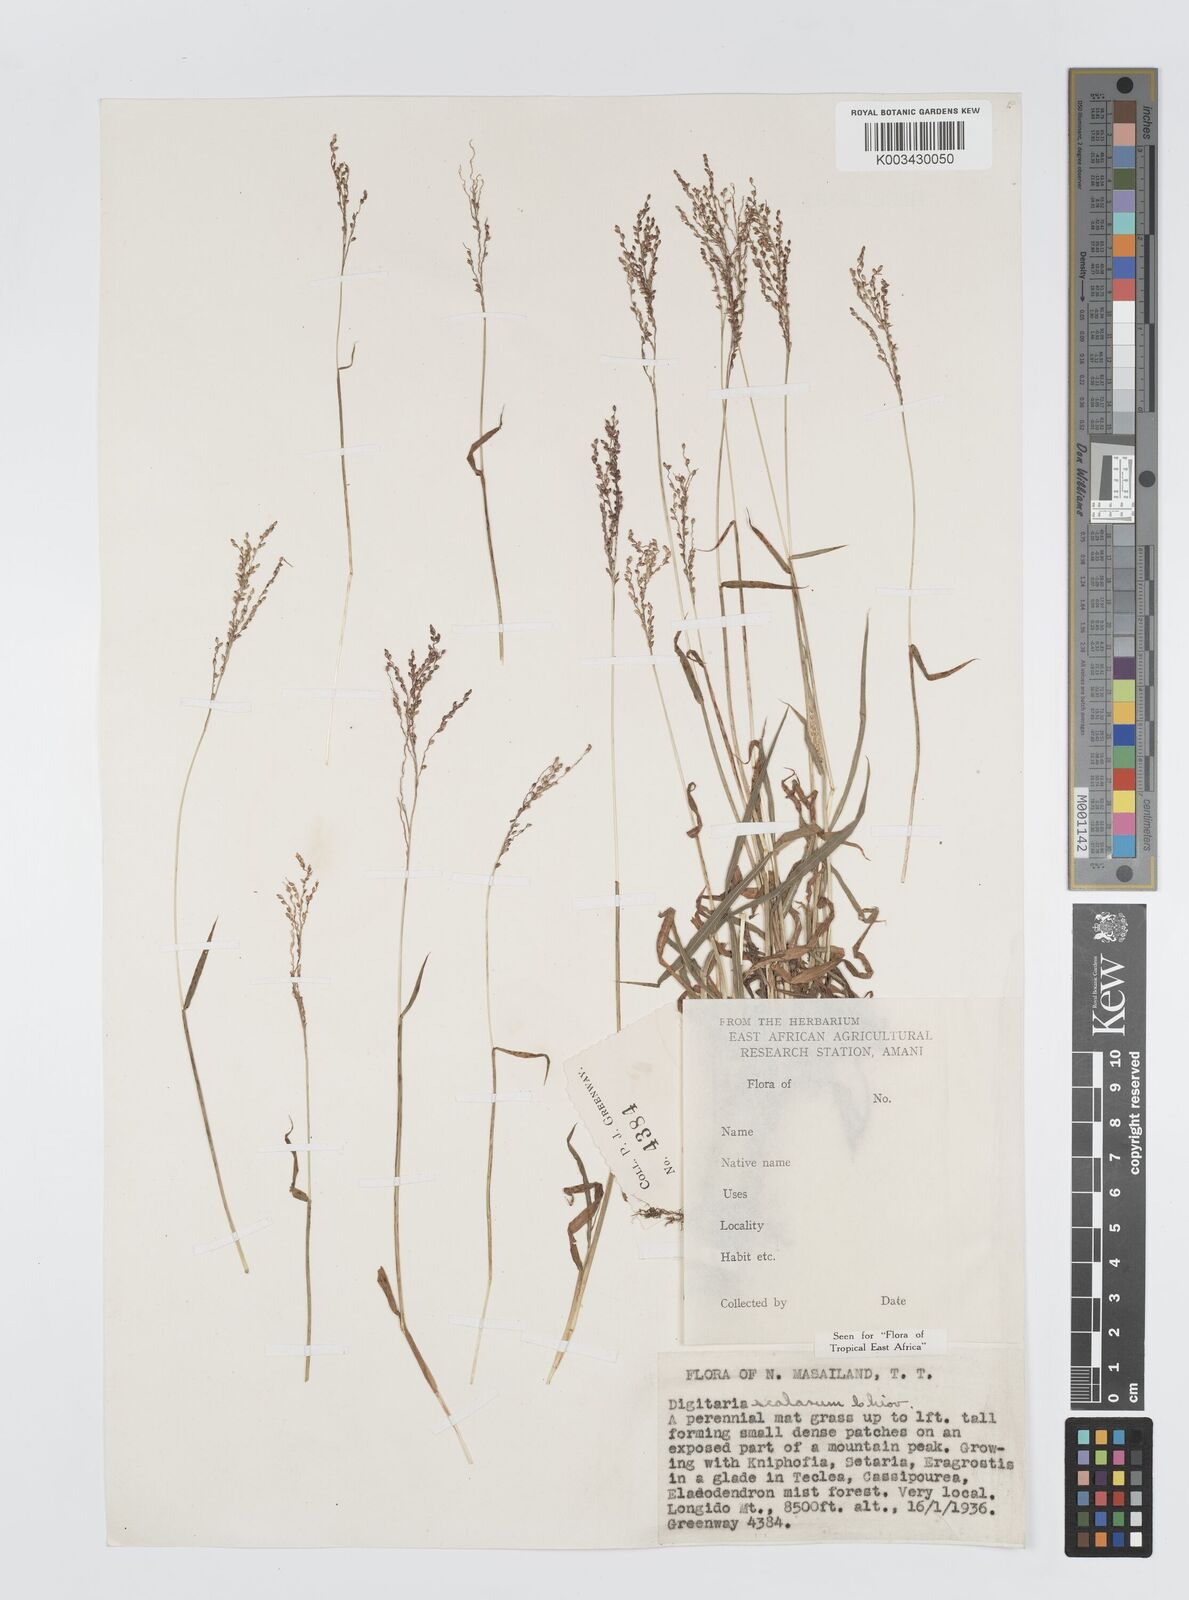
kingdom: Plantae
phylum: Tracheophyta
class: Liliopsida
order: Poales
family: Poaceae
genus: Digitaria
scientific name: Digitaria abyssinica
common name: African couchgrass
